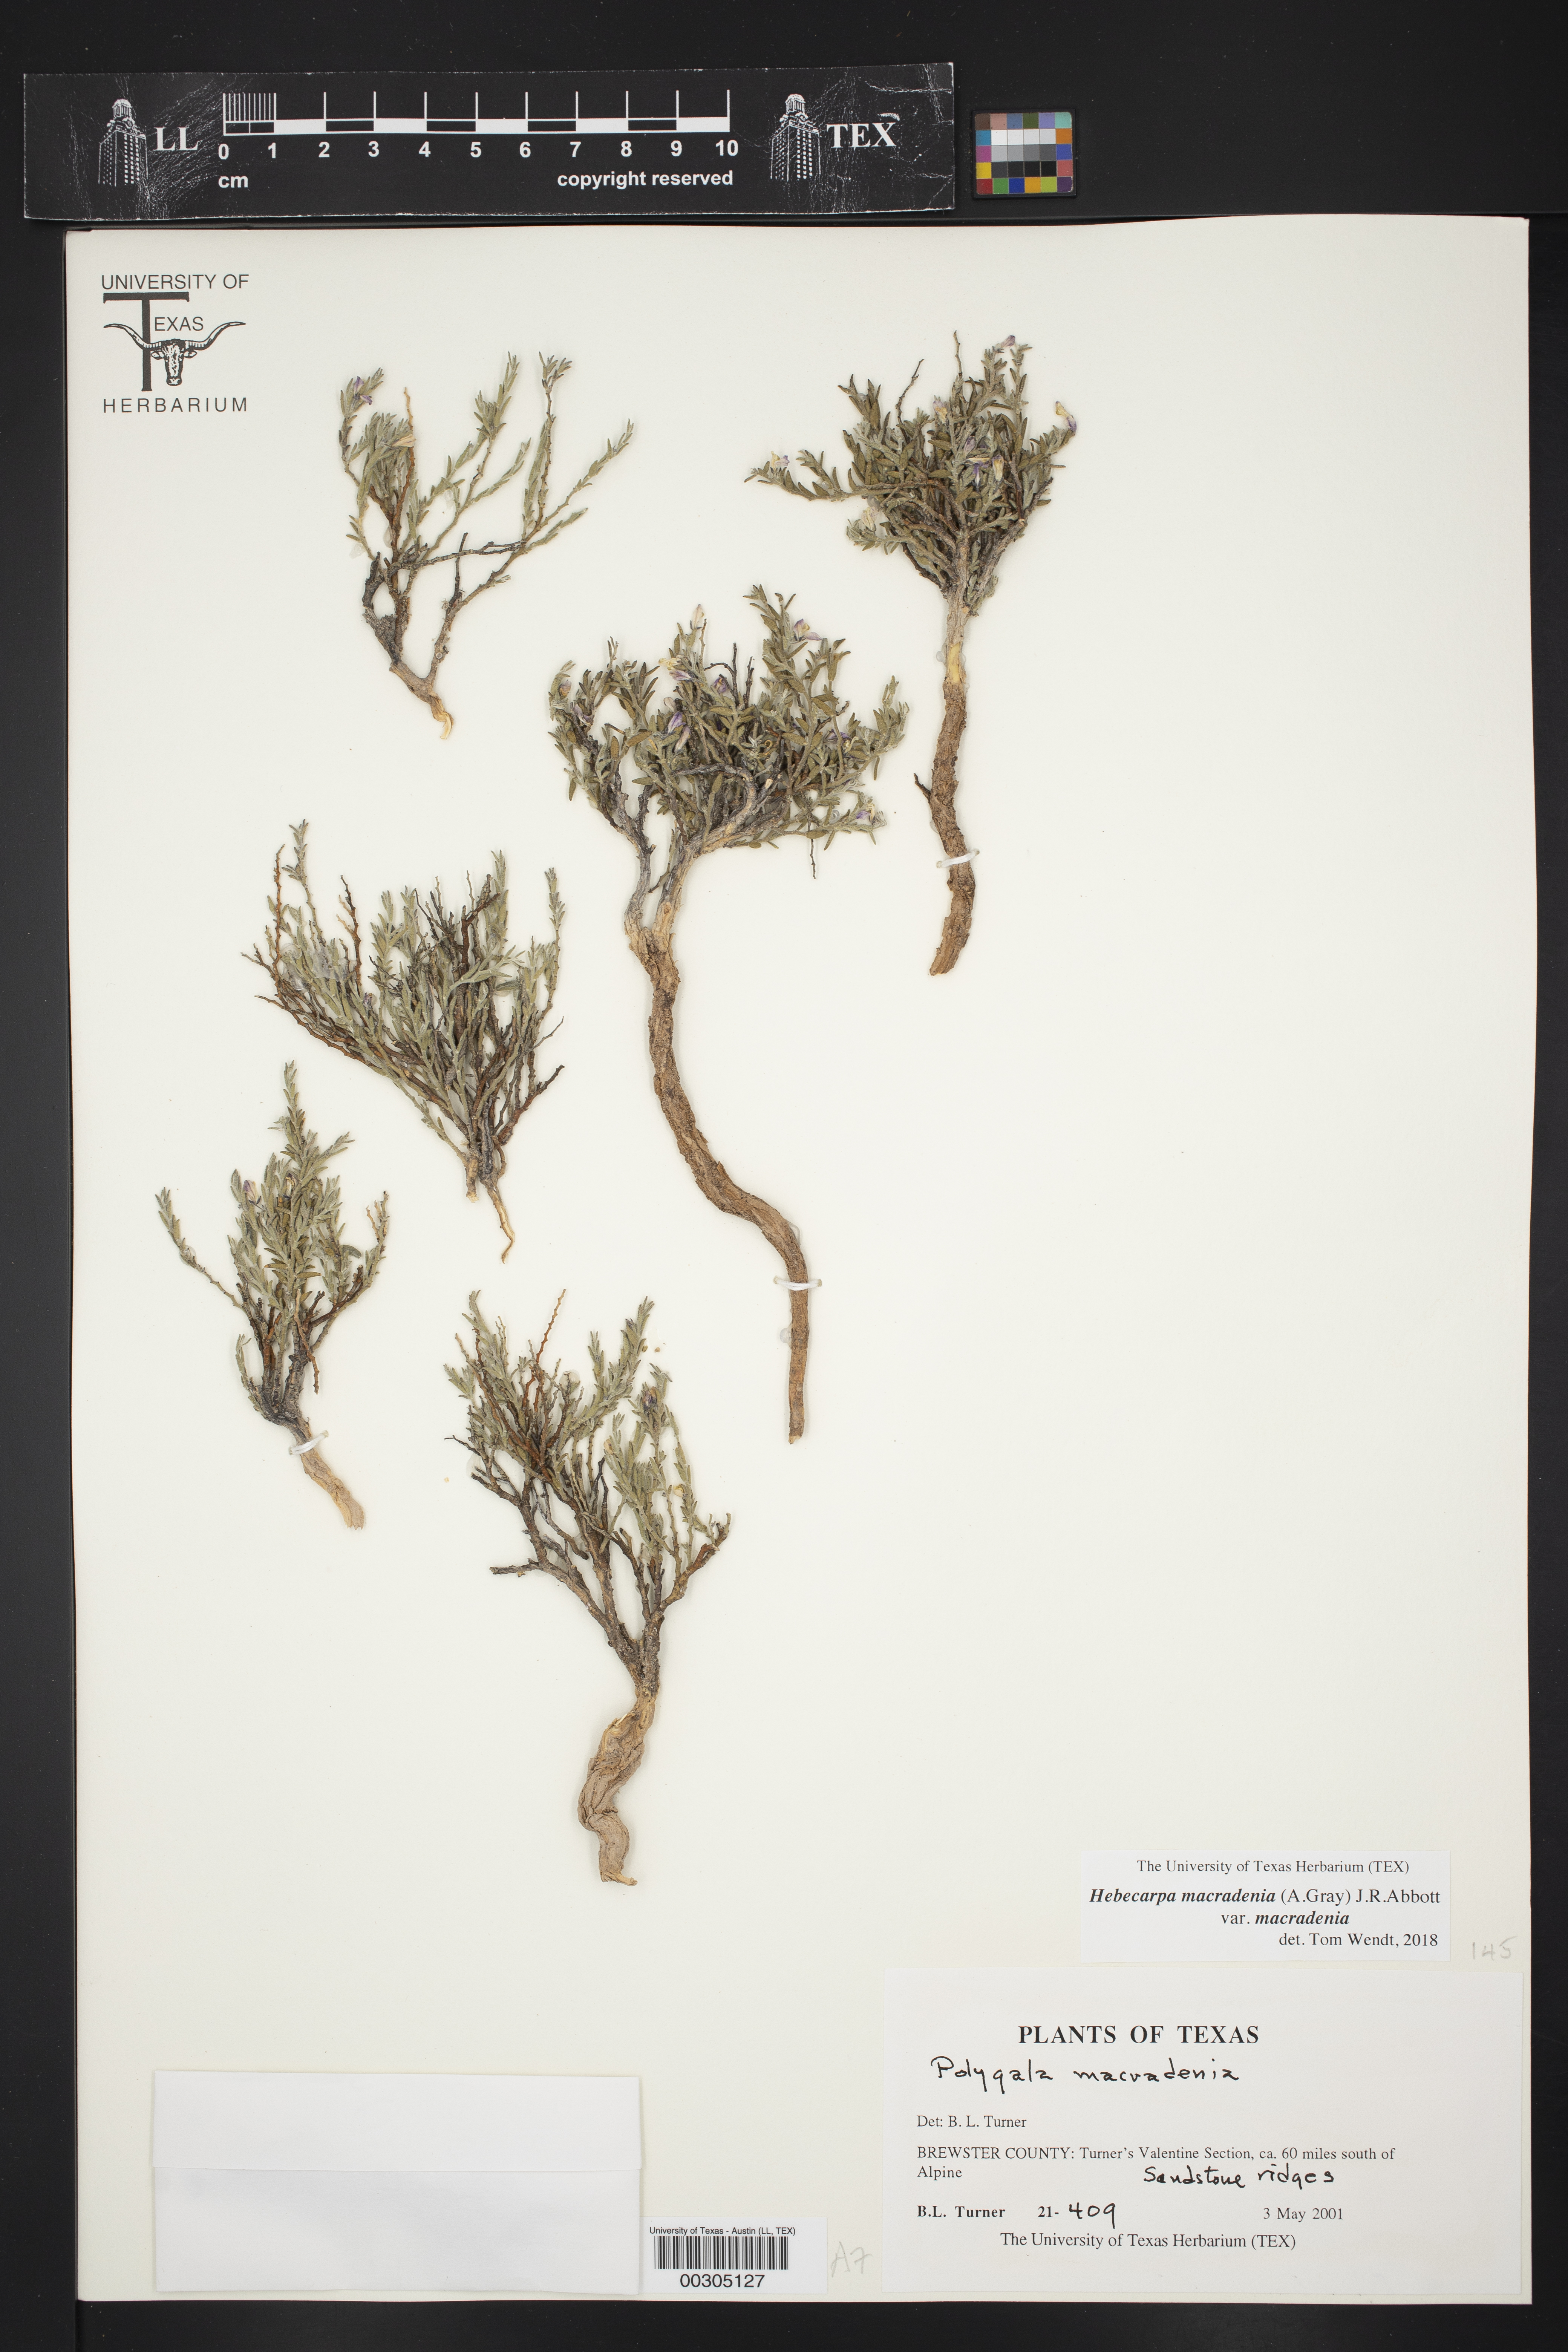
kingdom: Plantae
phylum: Tracheophyta
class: Magnoliopsida
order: Fabales
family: Polygalaceae
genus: Hebecarpa
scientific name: Hebecarpa macradenia
